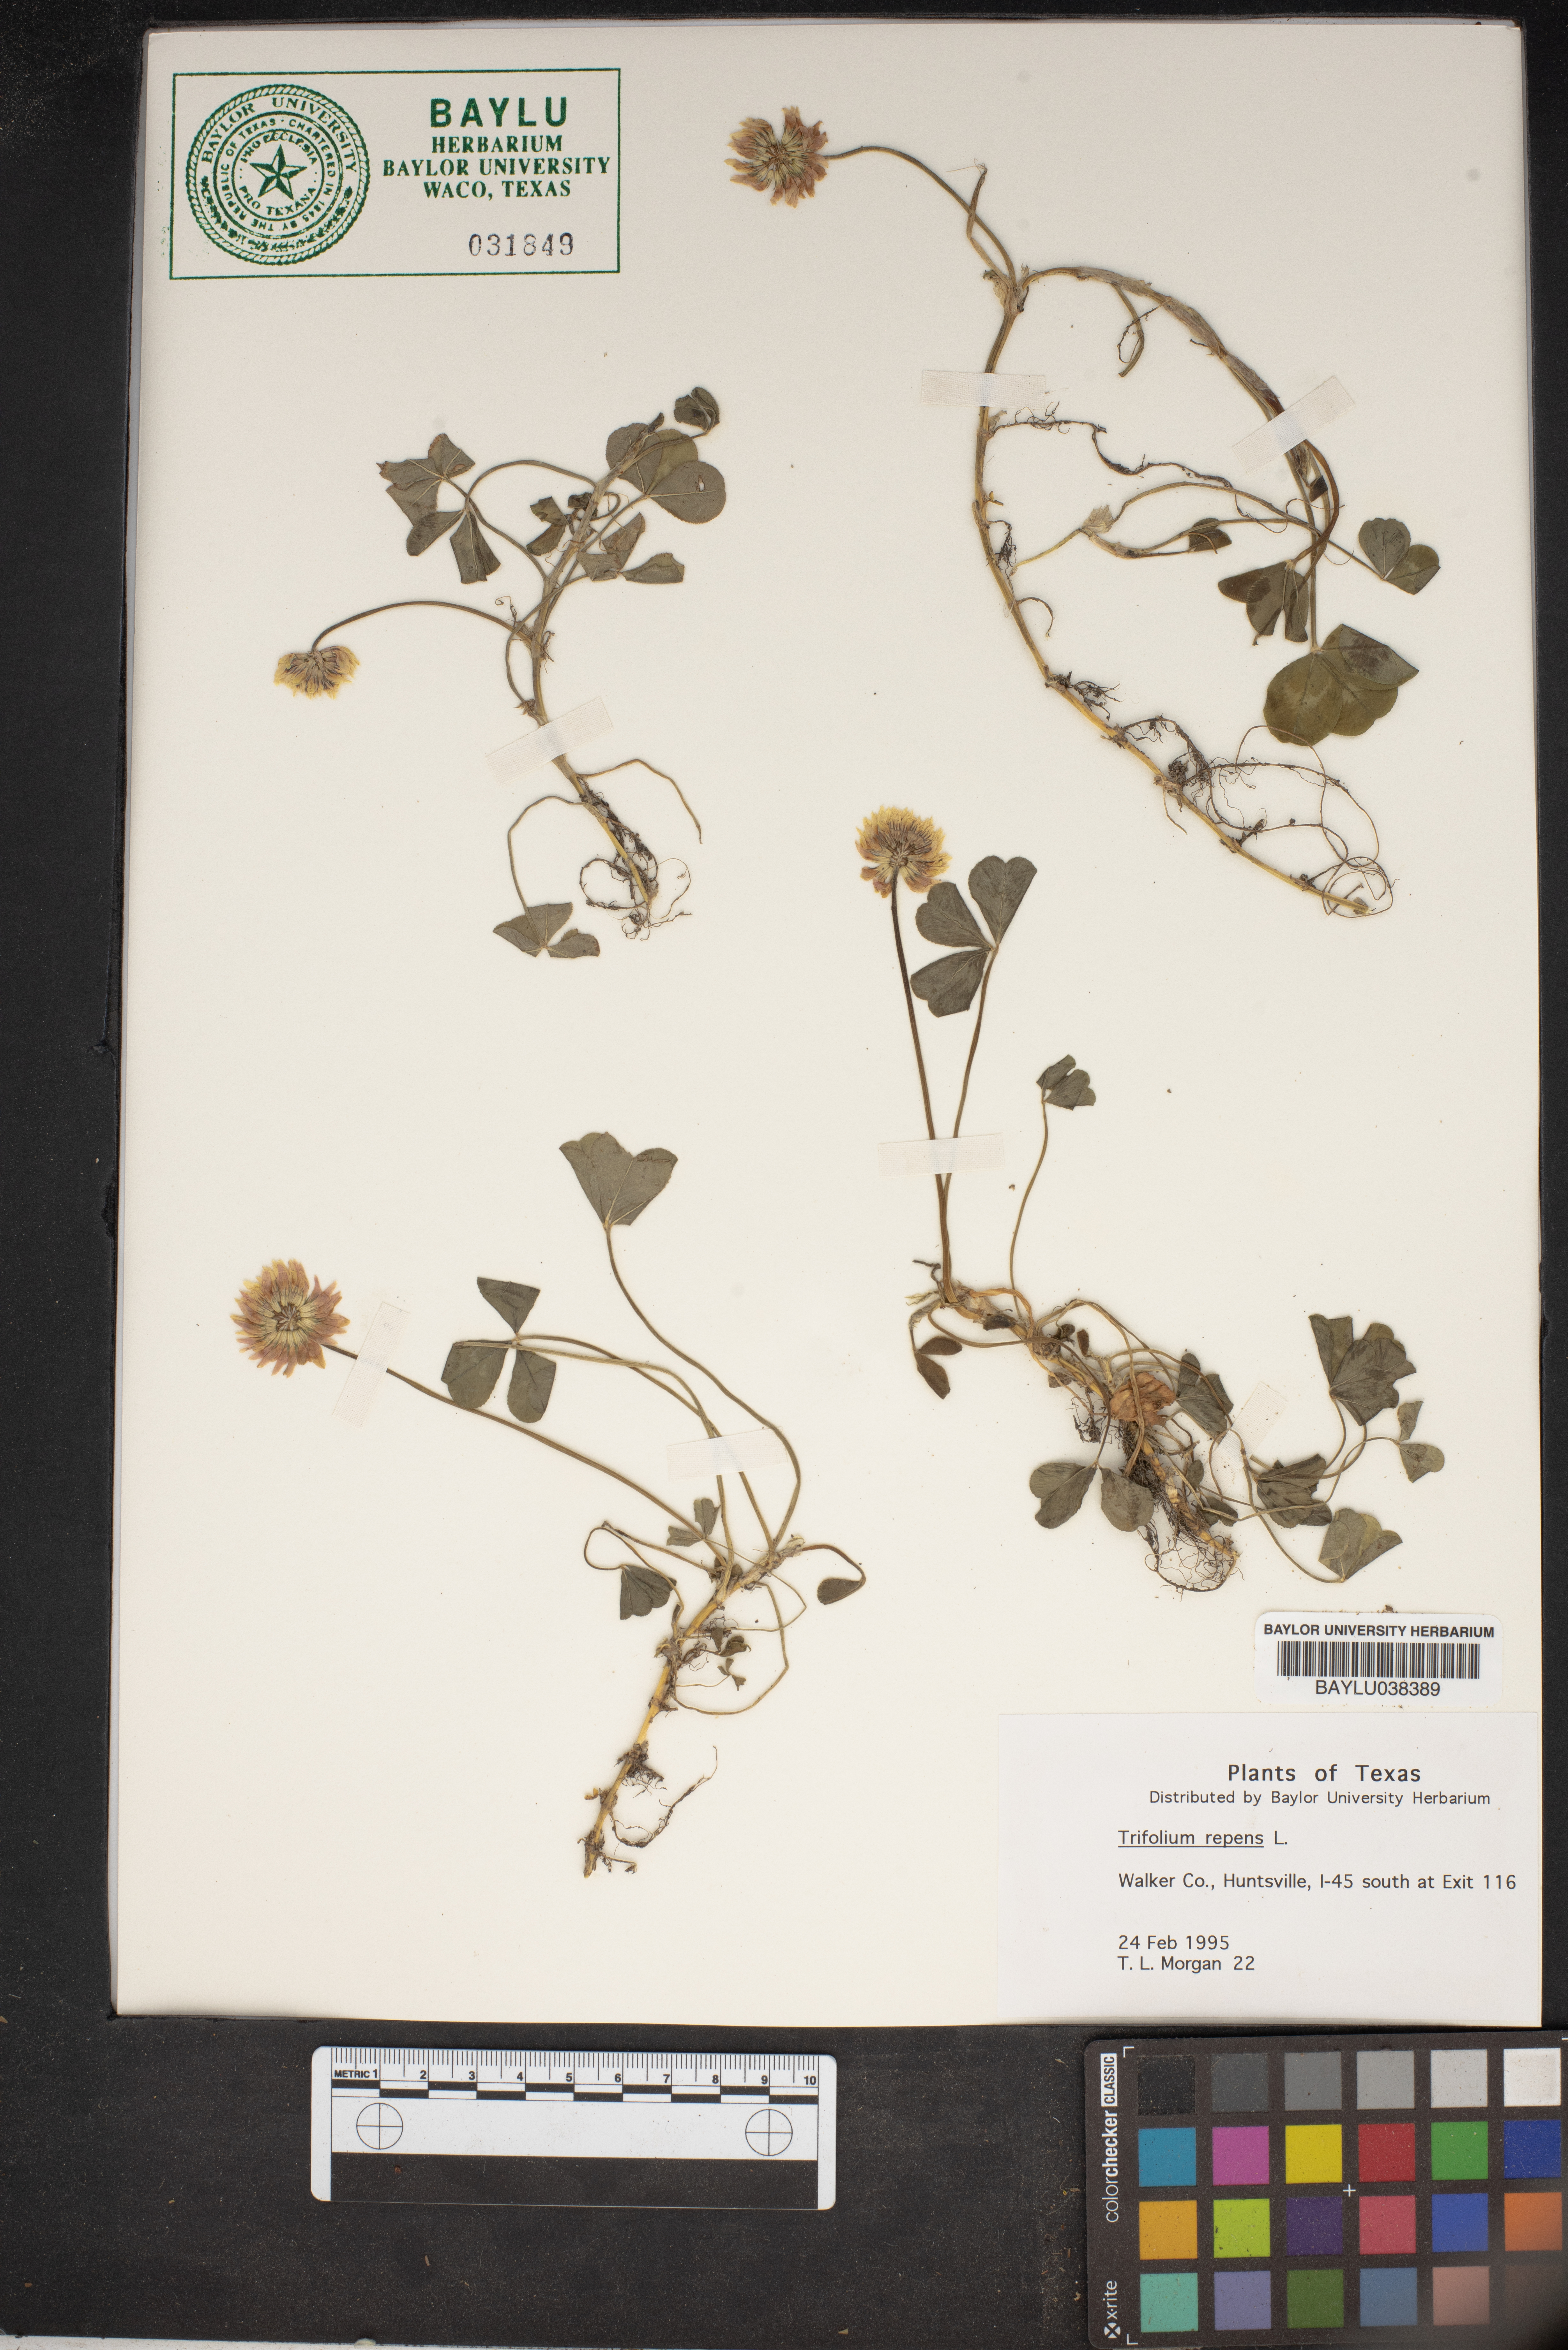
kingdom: Plantae
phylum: Tracheophyta
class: Magnoliopsida
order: Fabales
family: Fabaceae
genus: Trifolium
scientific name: Trifolium repens
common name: White clover
